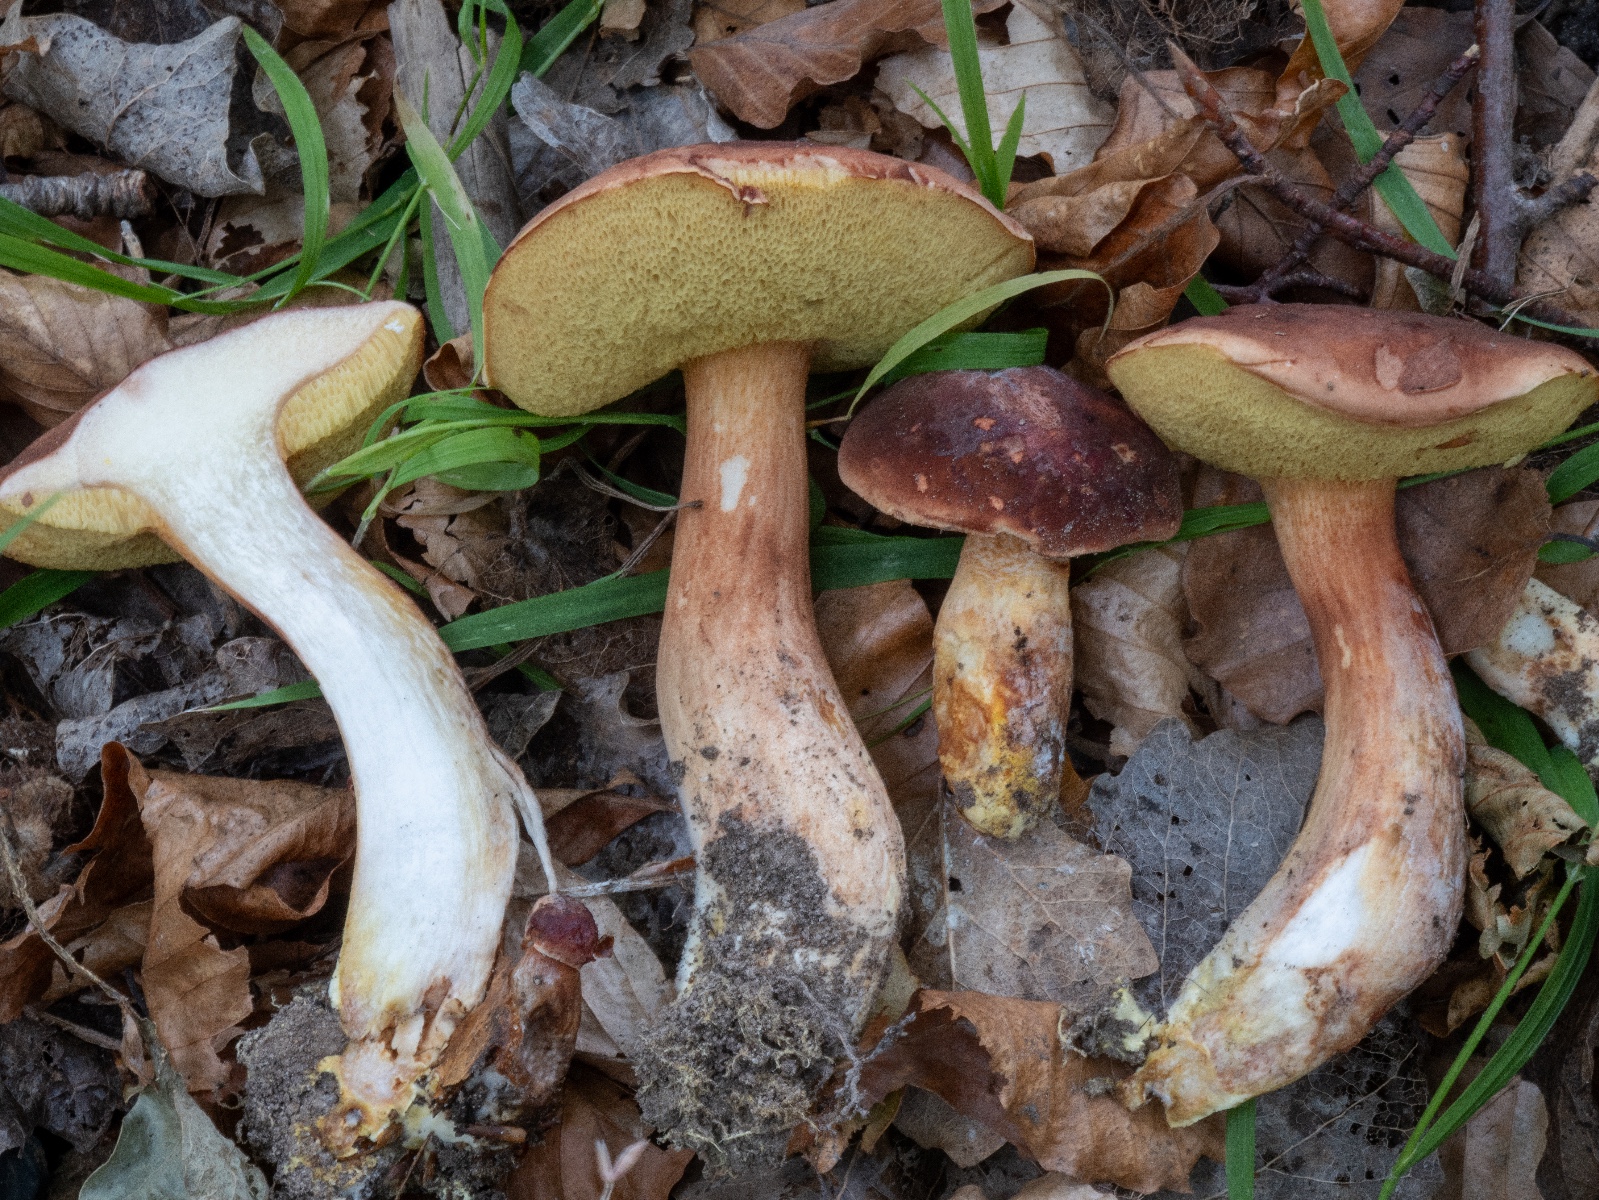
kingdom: Fungi
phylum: Basidiomycota
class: Agaricomycetes
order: Boletales
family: Boletaceae
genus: Xerocomus
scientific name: Xerocomus silwoodensis
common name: mahognibrun rørhat
